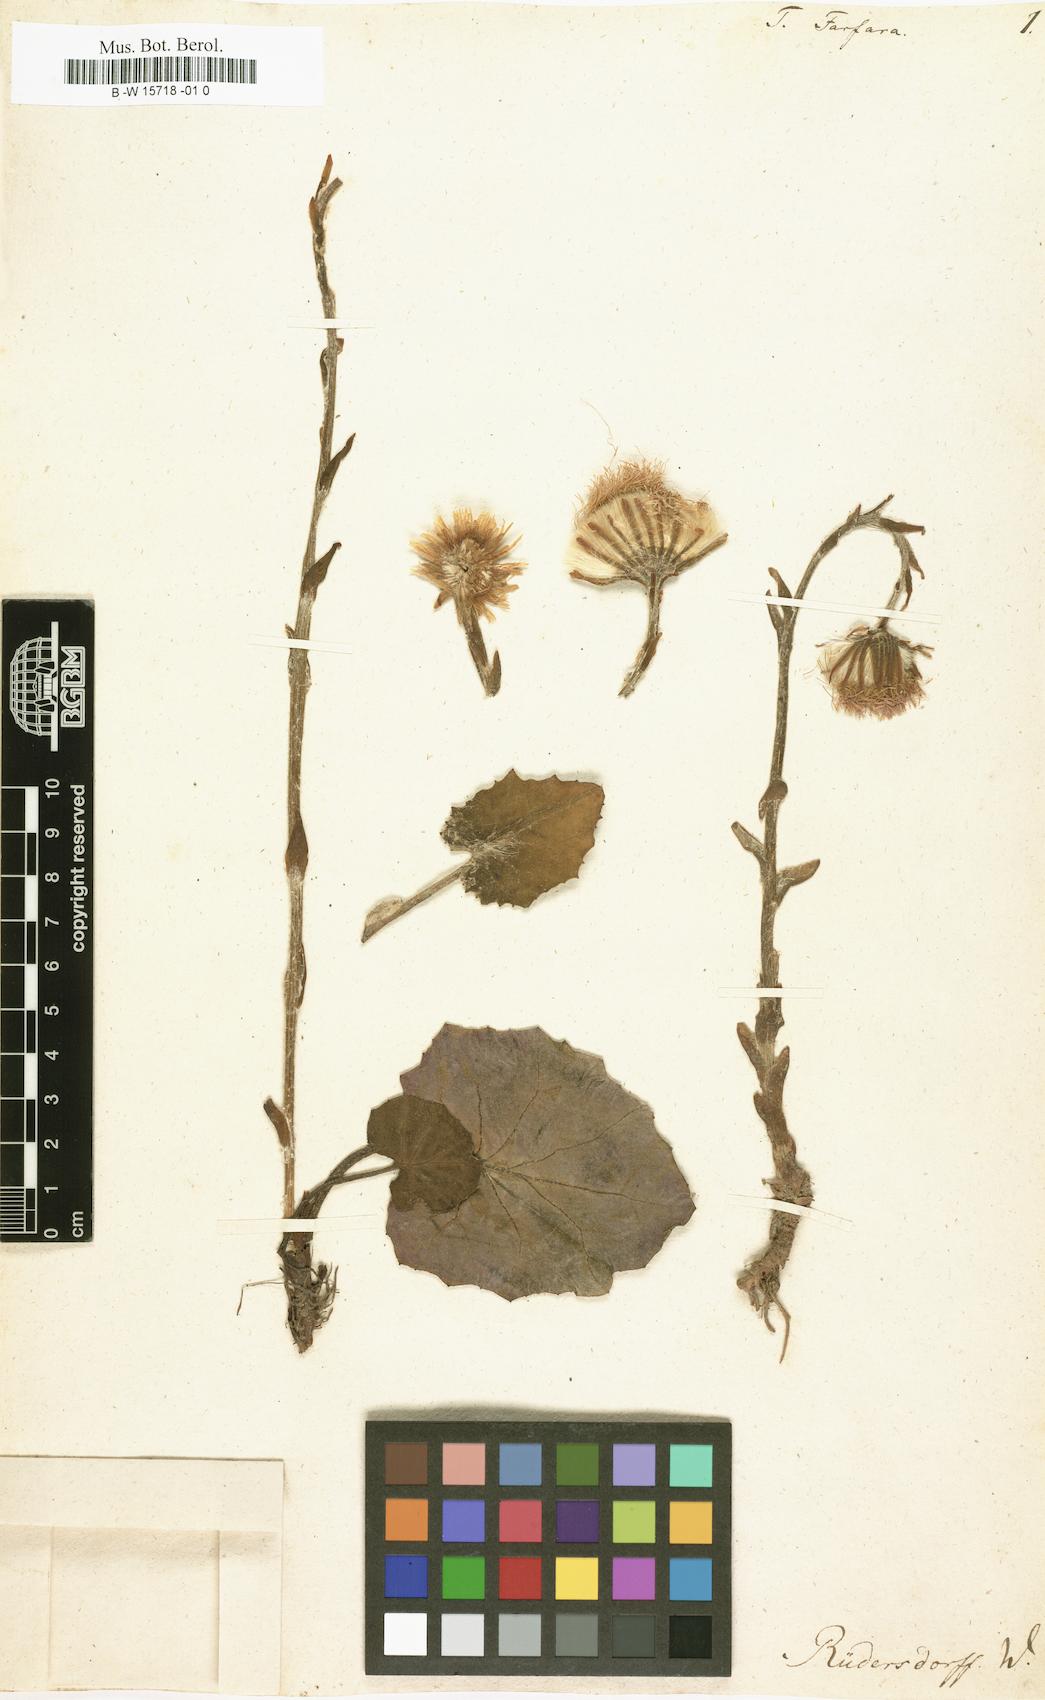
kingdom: Plantae
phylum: Tracheophyta
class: Magnoliopsida
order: Asterales
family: Asteraceae
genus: Tussilago
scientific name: Tussilago farfara
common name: Coltsfoot
